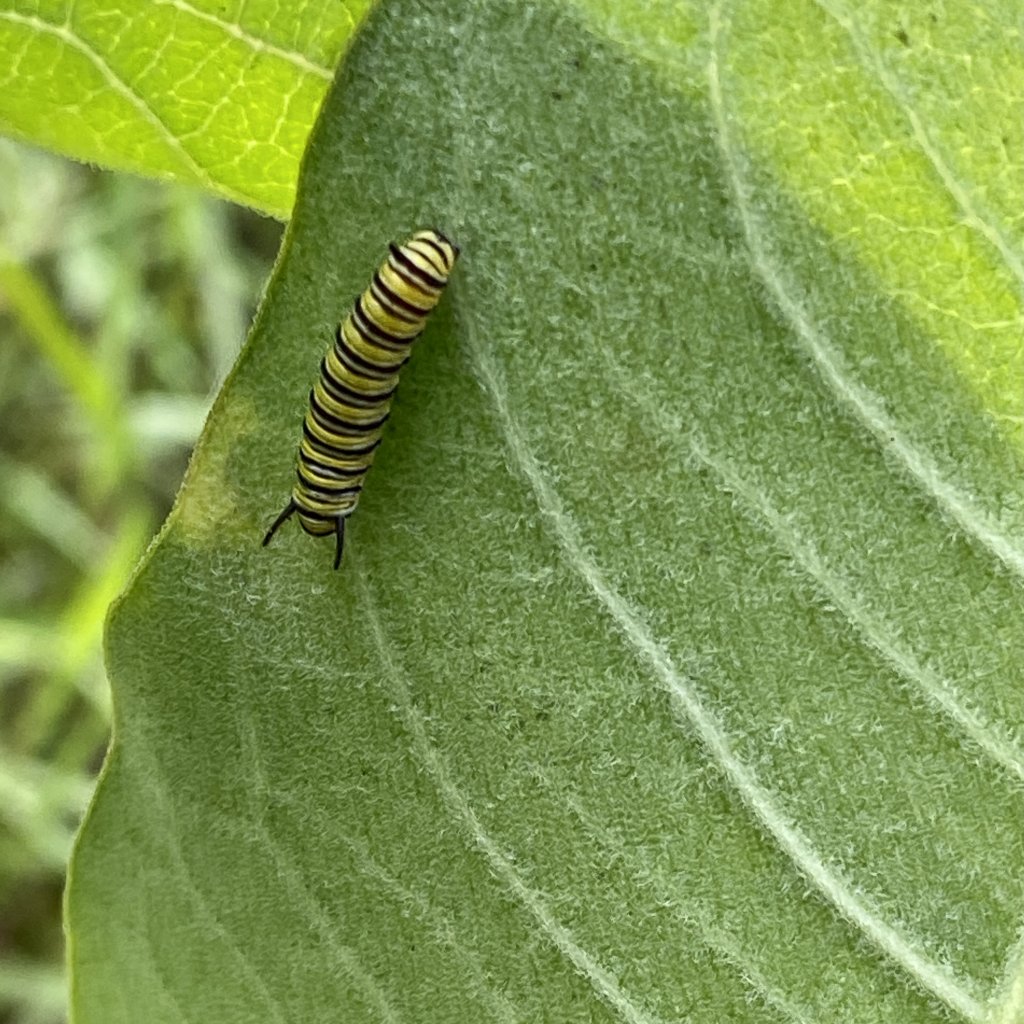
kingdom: Animalia
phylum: Arthropoda
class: Insecta
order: Lepidoptera
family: Nymphalidae
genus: Danaus
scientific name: Danaus plexippus
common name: Monarch
